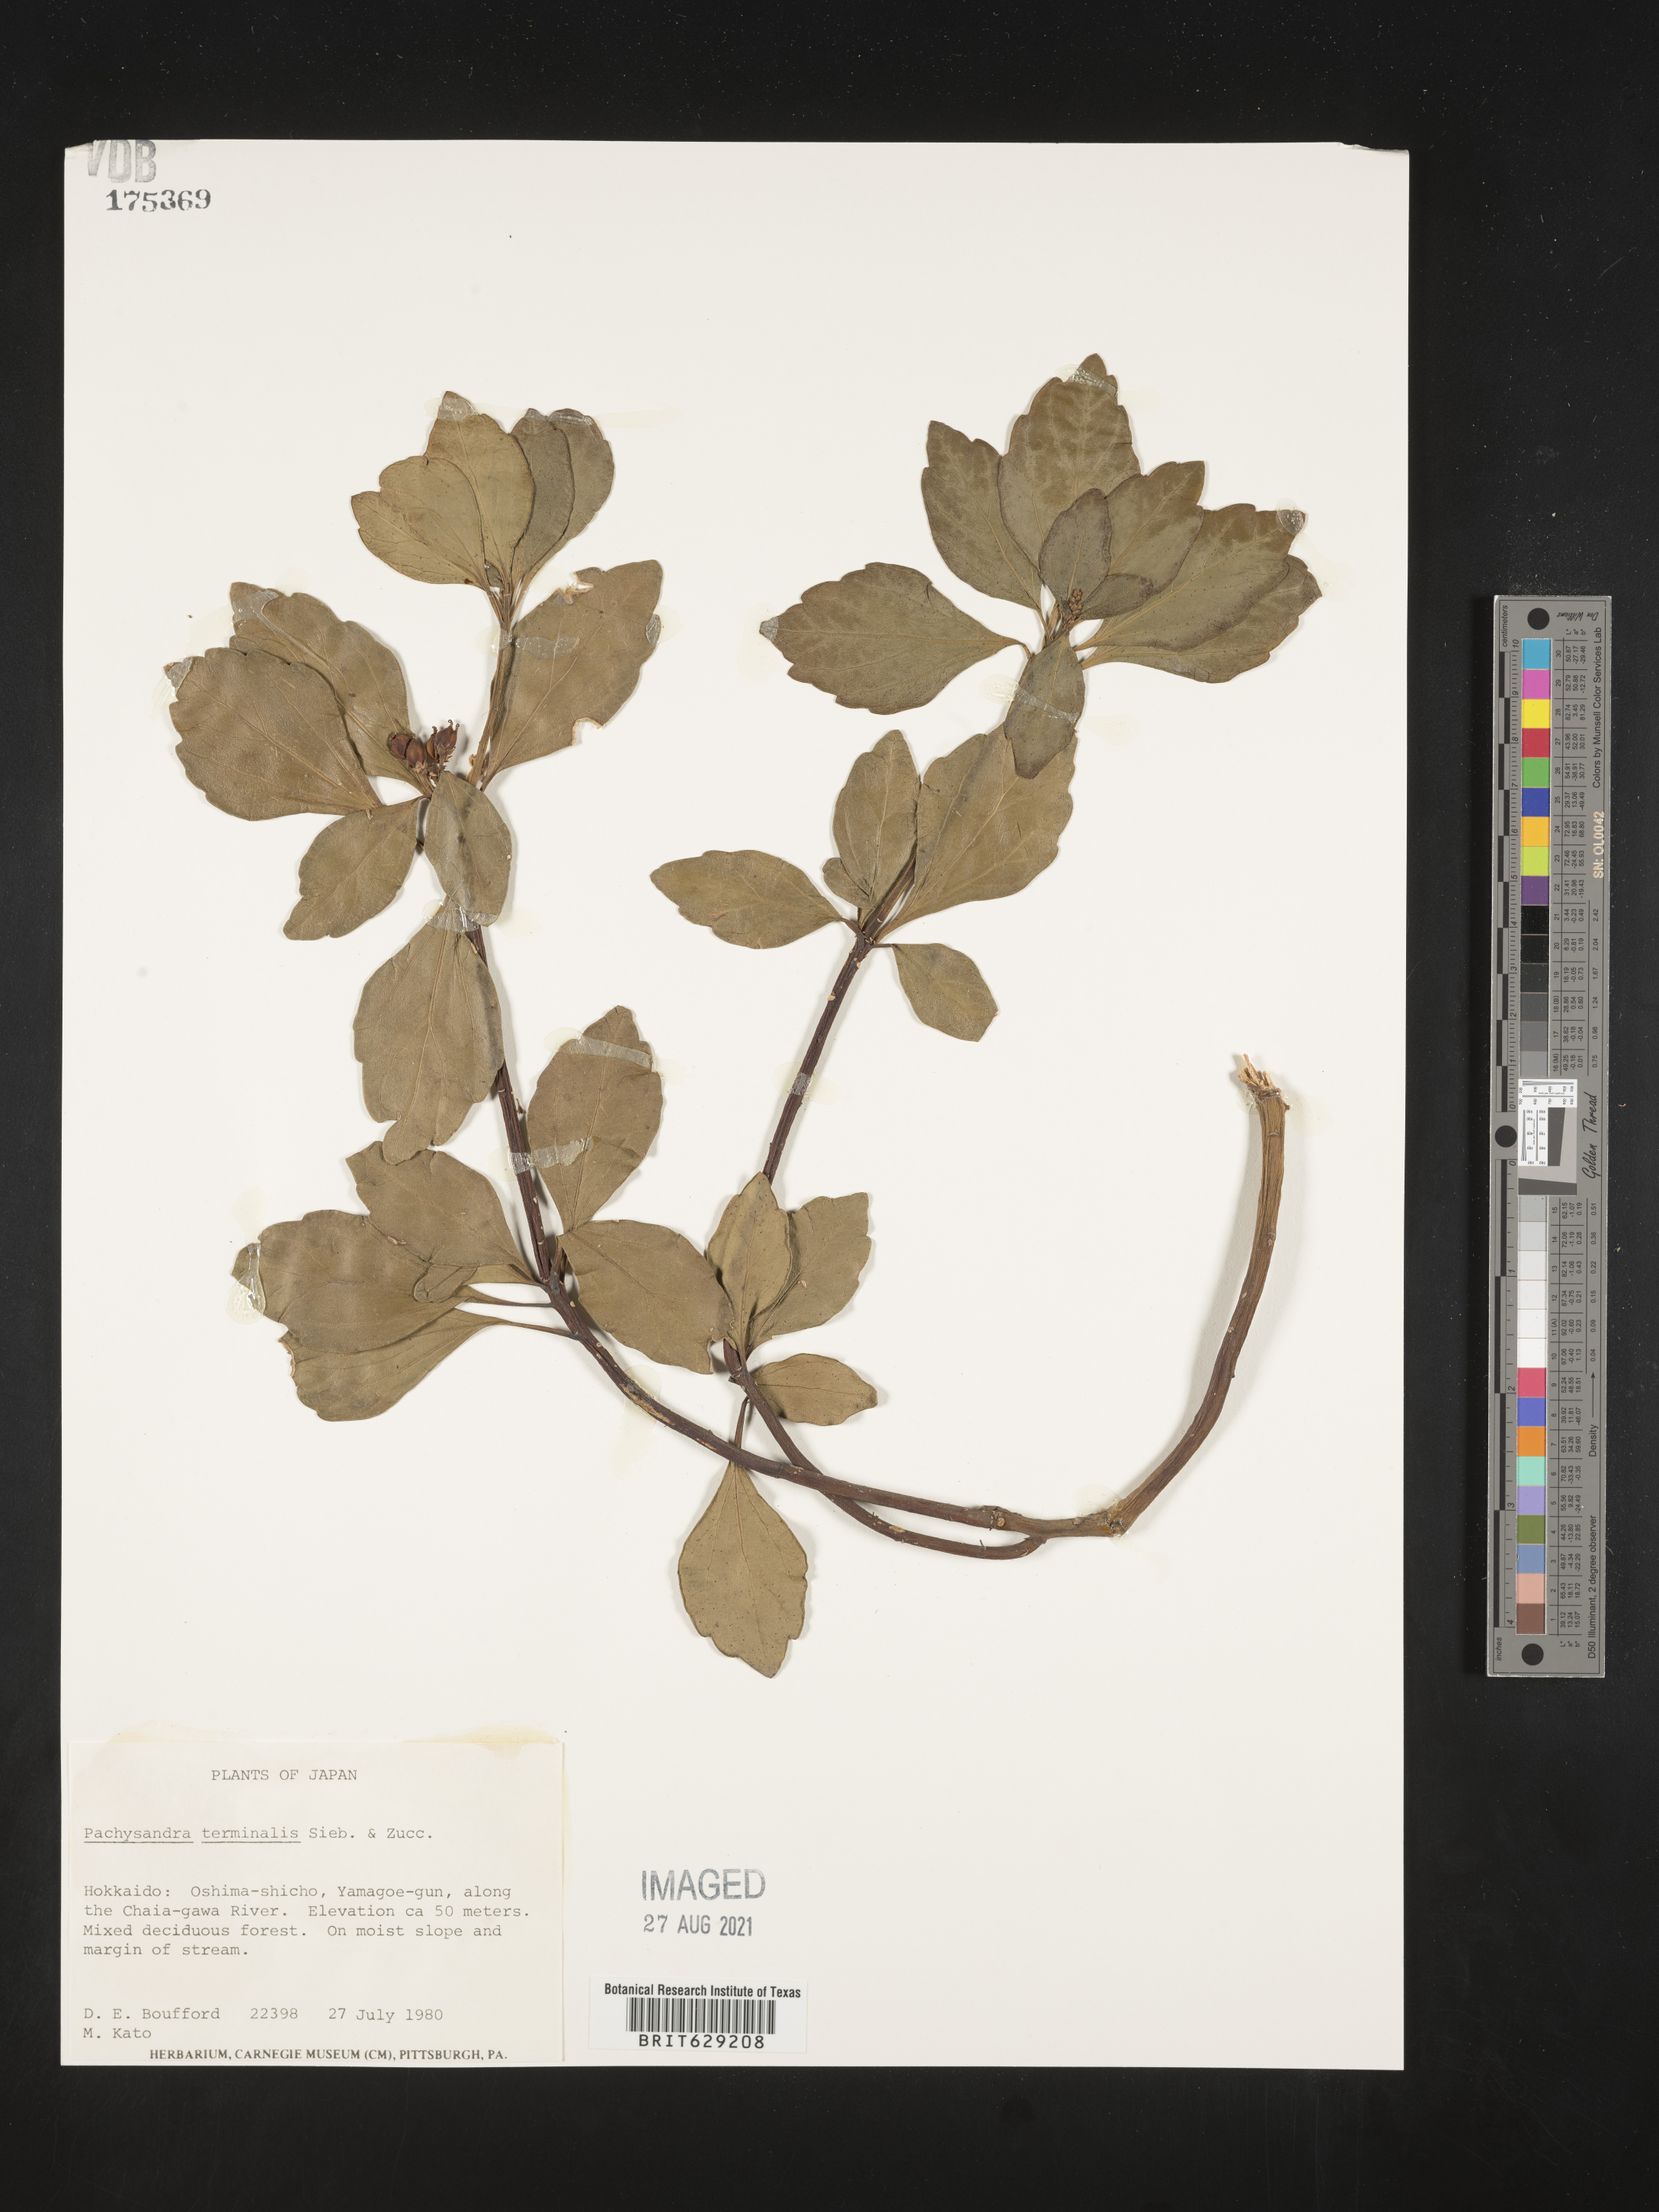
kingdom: Plantae
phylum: Tracheophyta
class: Magnoliopsida
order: Buxales
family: Buxaceae
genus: Pachysandra
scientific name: Pachysandra terminalis
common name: Japanese pachysandra
